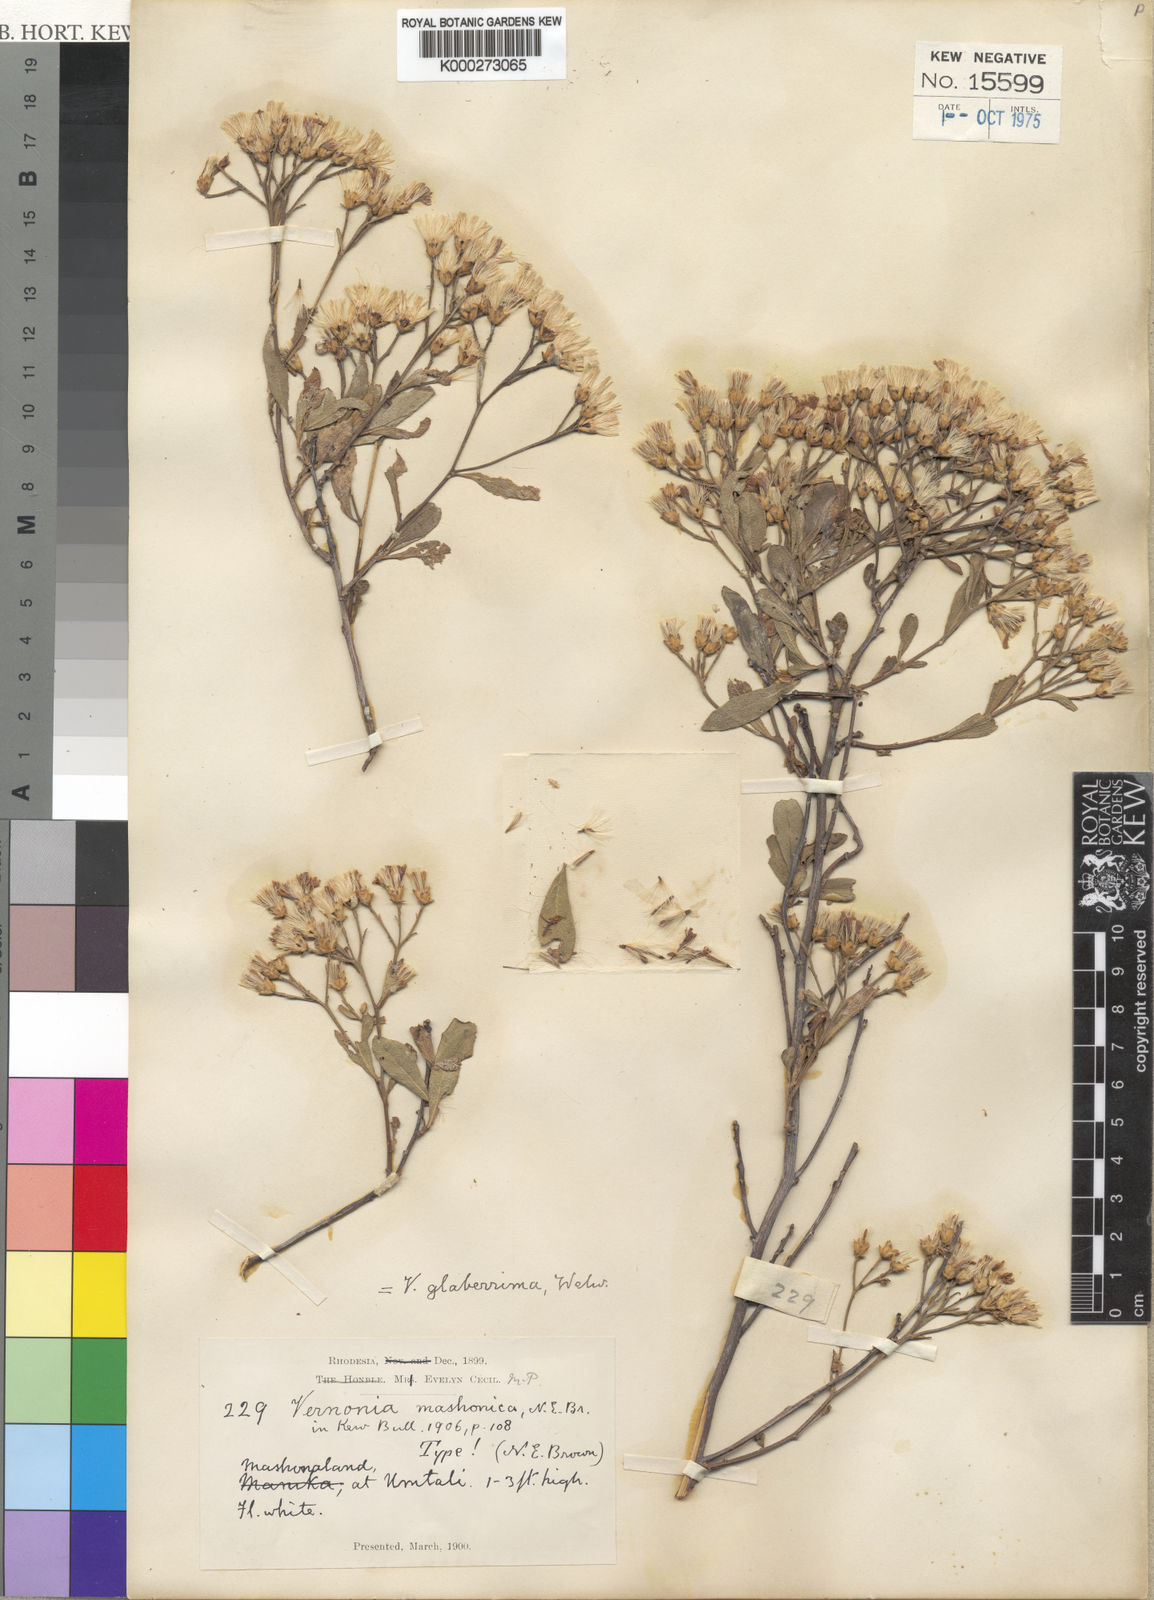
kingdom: Plantae
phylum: Tracheophyta
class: Magnoliopsida
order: Asterales
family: Asteraceae
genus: Gymnanthemum
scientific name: Gymnanthemum glaberrimum
